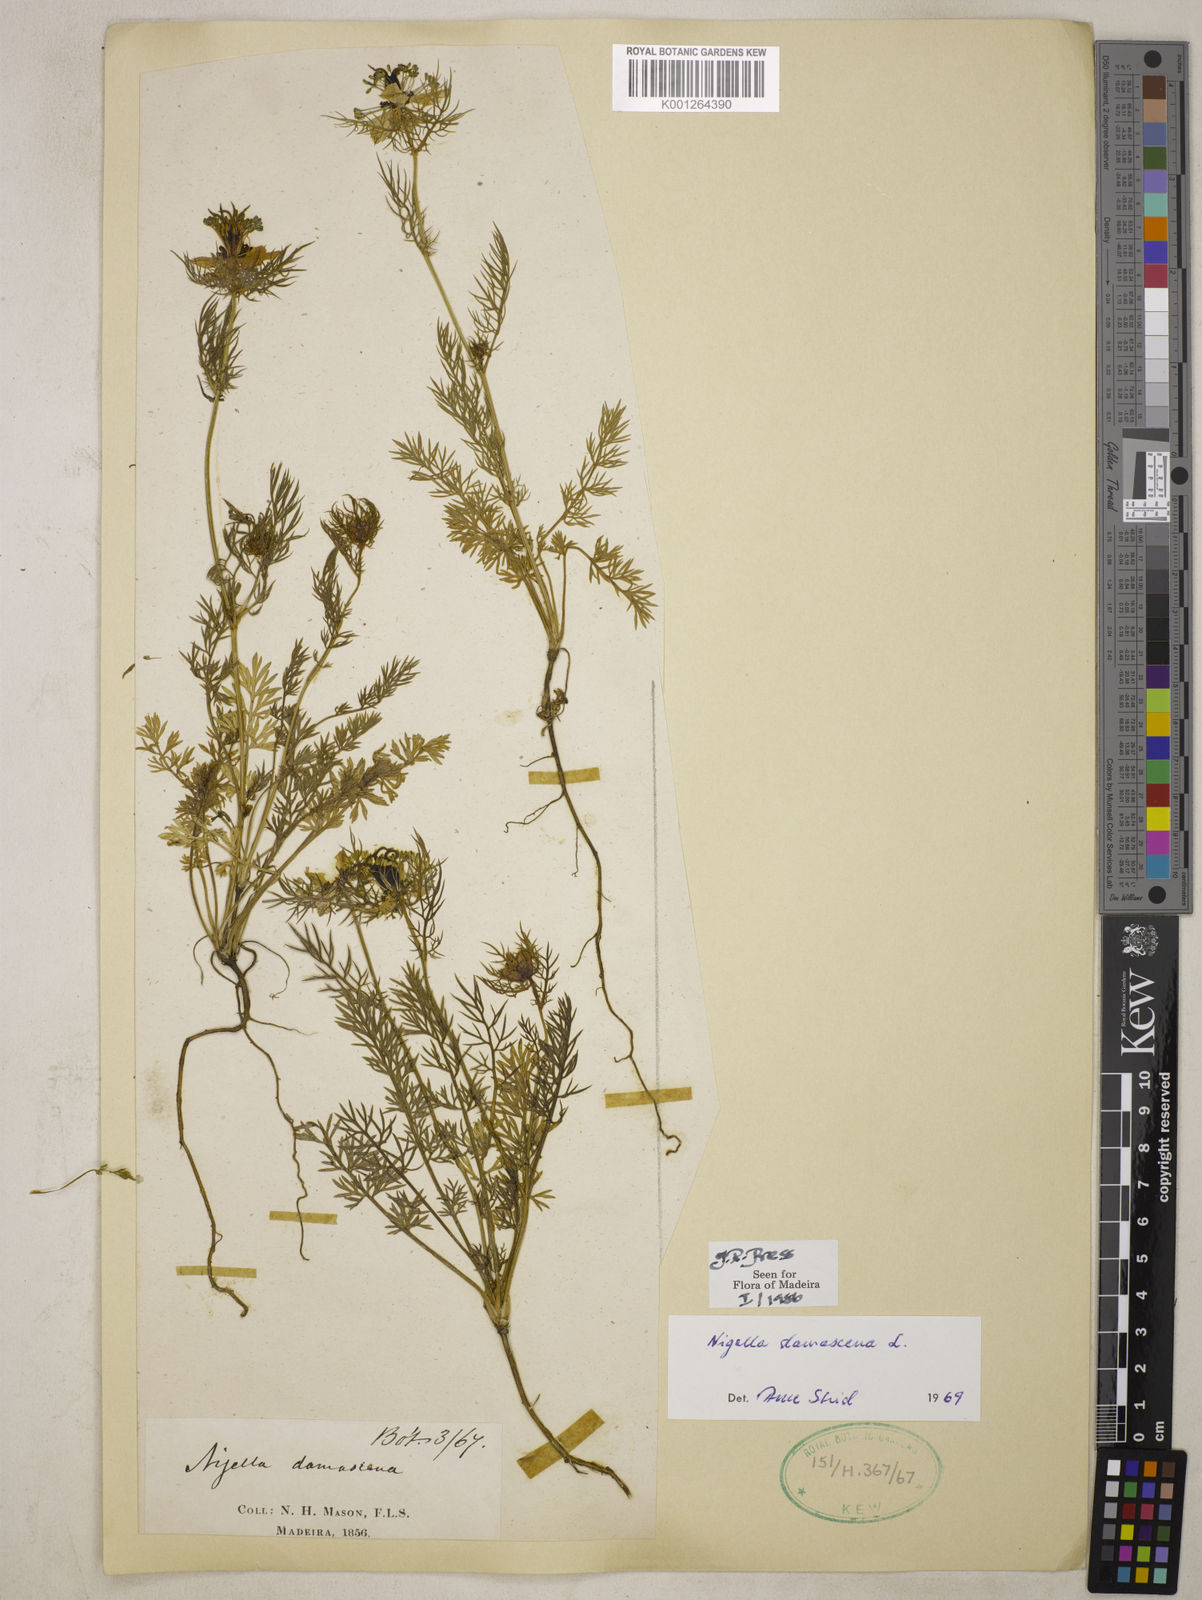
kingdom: Plantae
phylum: Tracheophyta
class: Magnoliopsida
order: Ranunculales
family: Ranunculaceae
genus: Nigella
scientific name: Nigella damascena
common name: Love-in-a-mist
